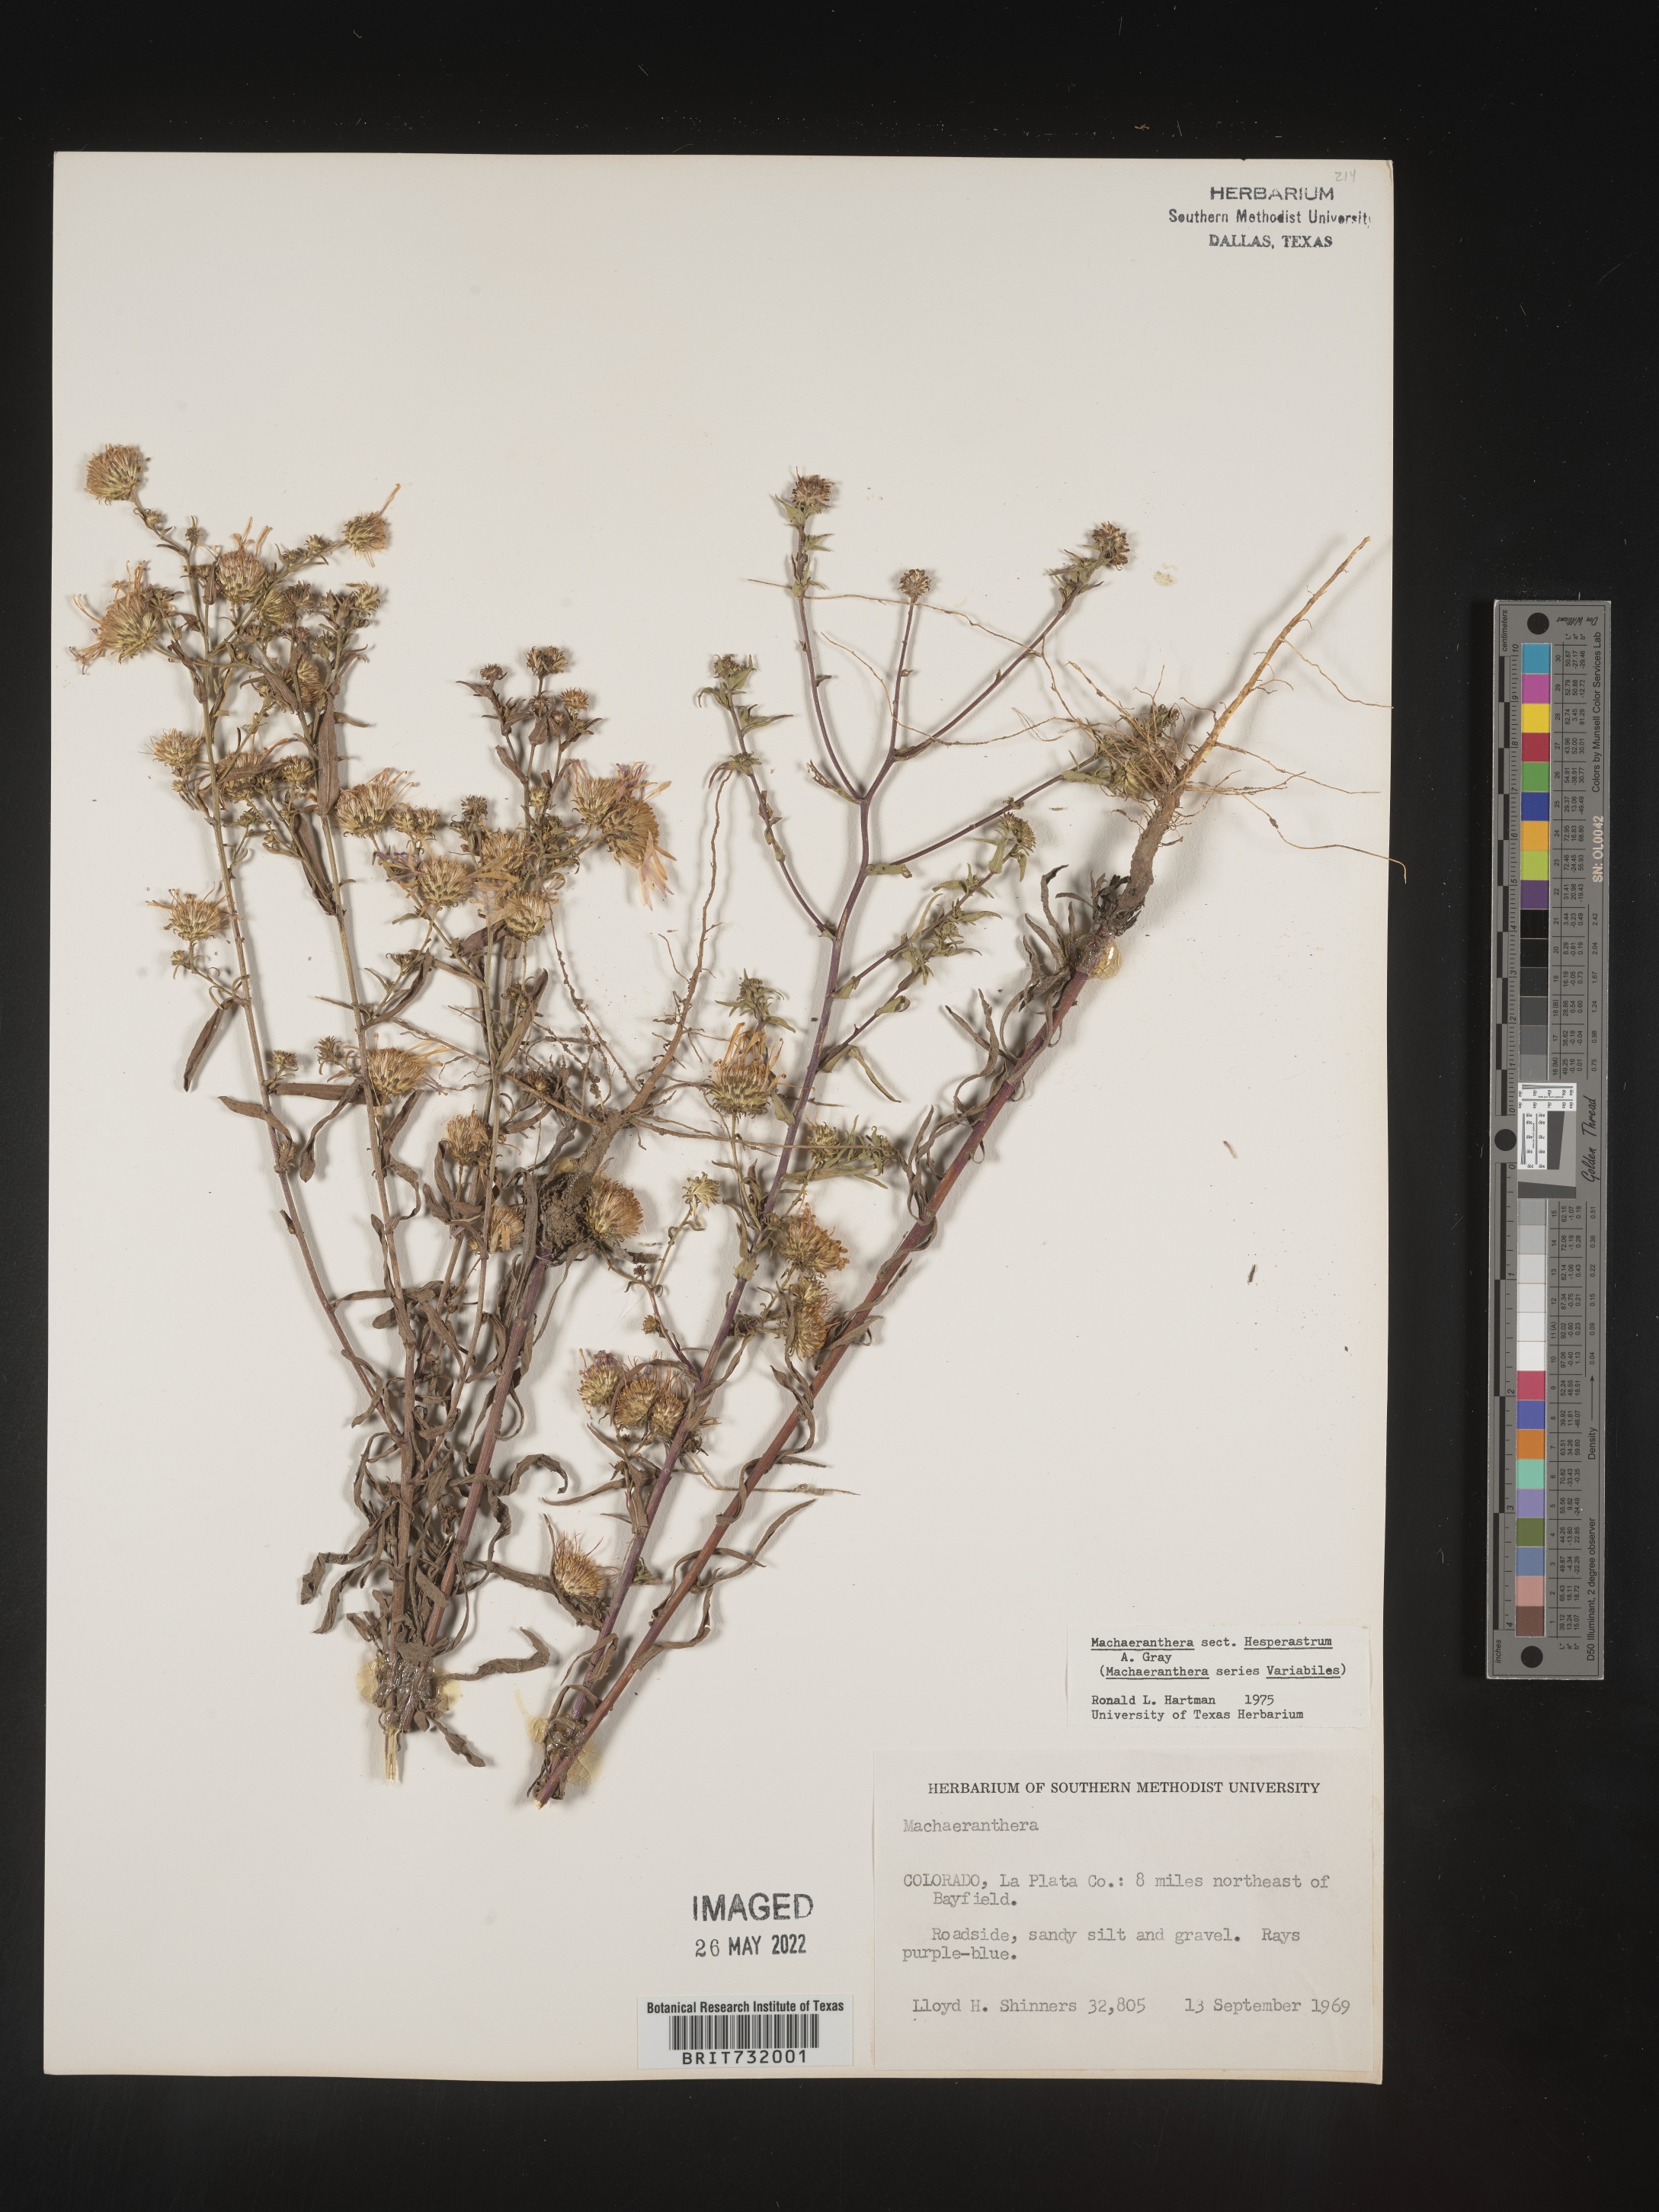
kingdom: Plantae
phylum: Tracheophyta
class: Magnoliopsida
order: Asterales
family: Asteraceae
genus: Machaeranthera
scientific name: Machaeranthera
